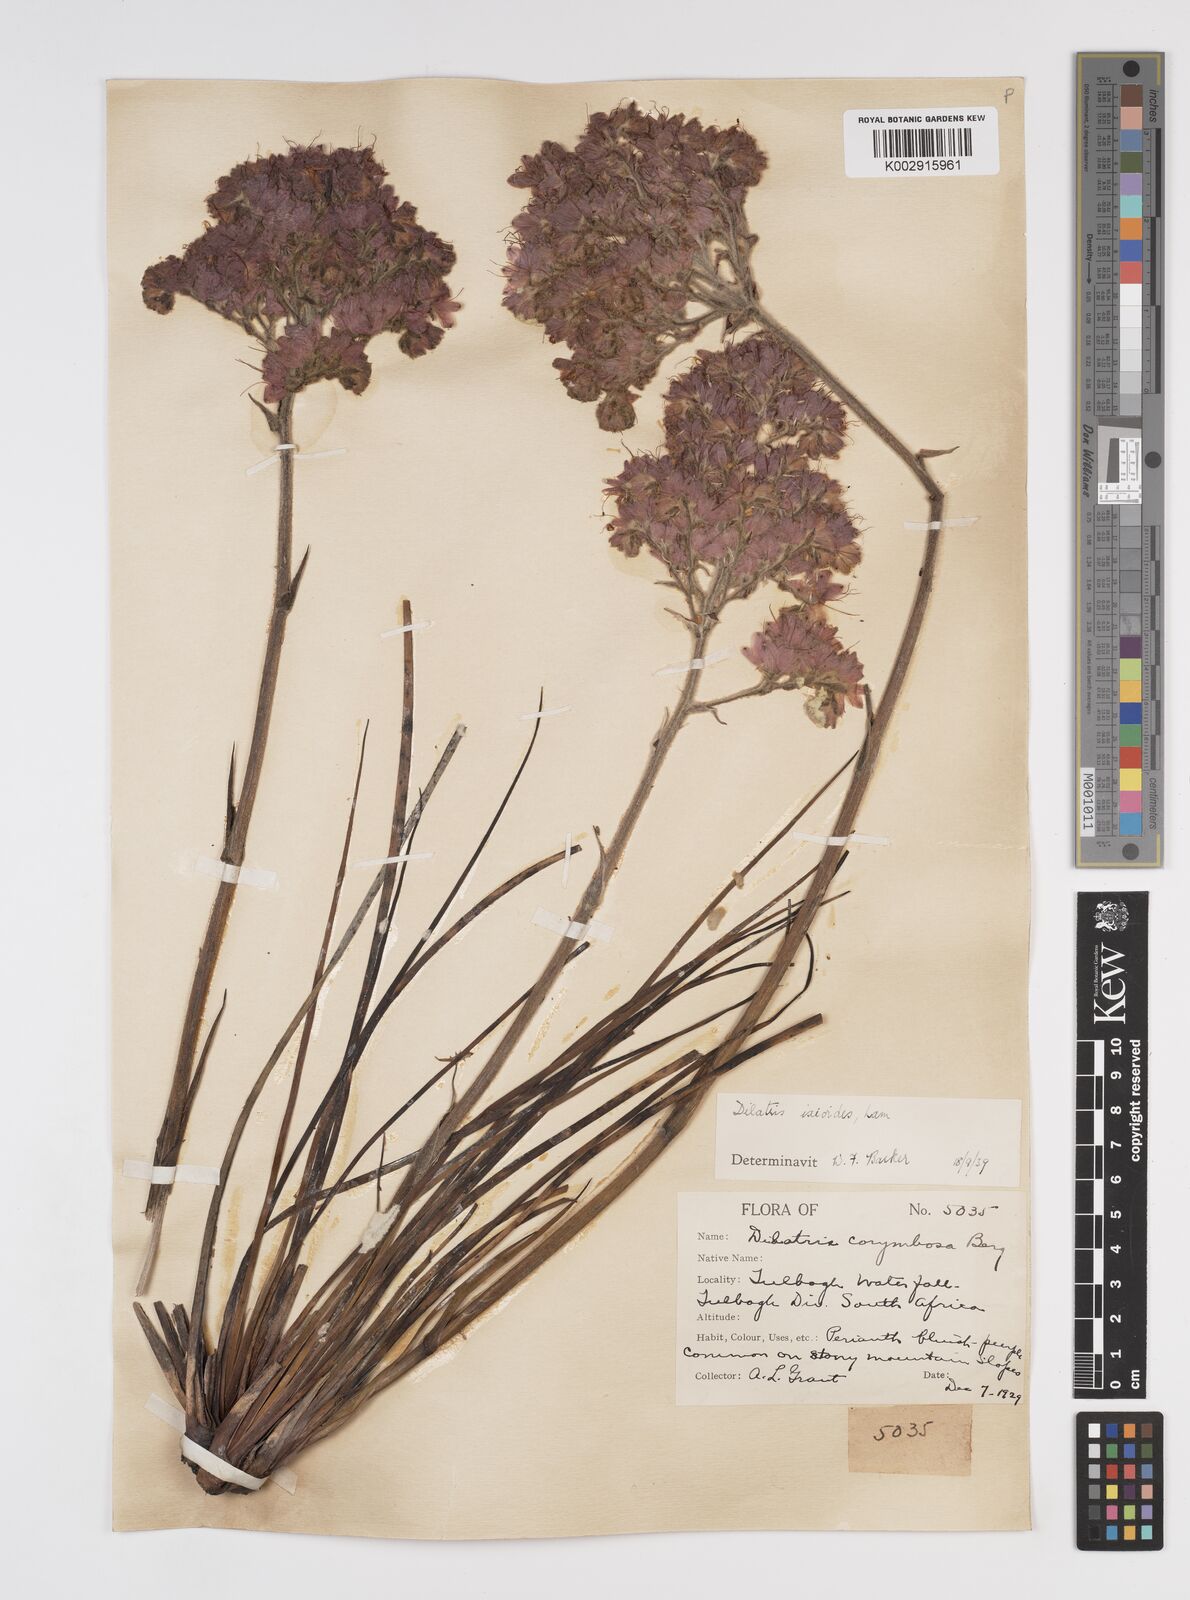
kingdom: Plantae
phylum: Tracheophyta
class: Liliopsida
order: Commelinales
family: Haemodoraceae
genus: Dilatris
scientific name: Dilatris ixioides
